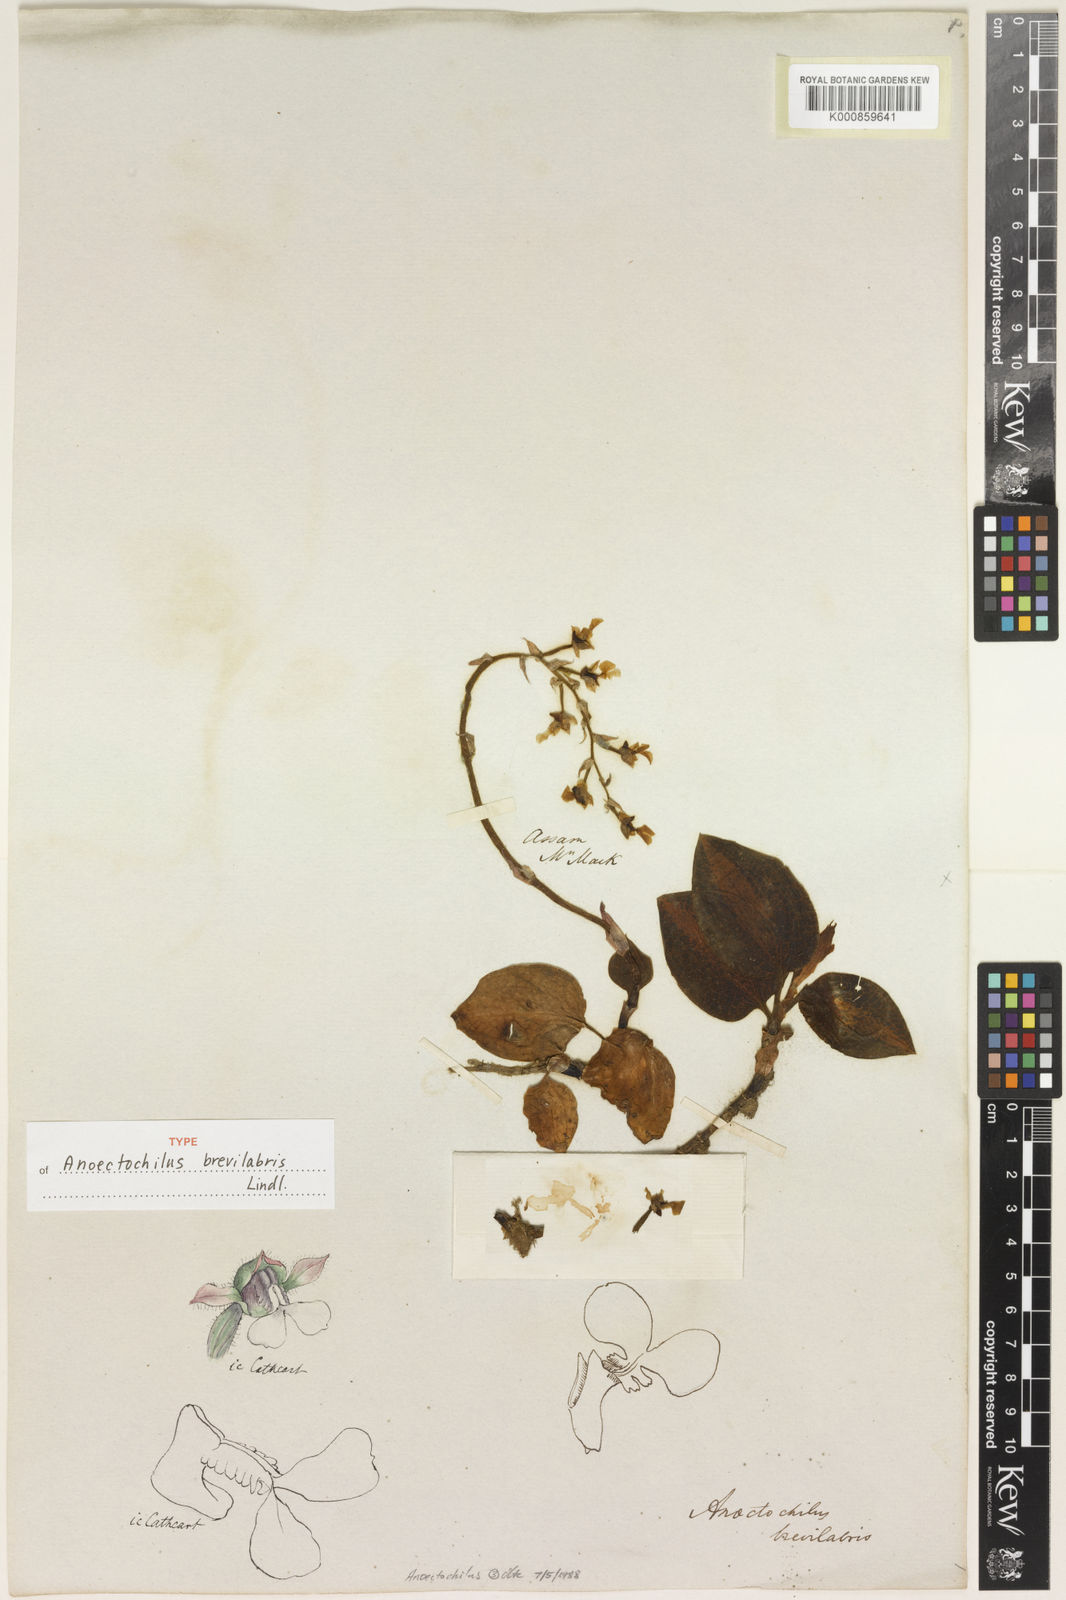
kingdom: Plantae
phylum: Tracheophyta
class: Liliopsida
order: Asparagales
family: Orchidaceae
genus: Anoectochilus
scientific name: Anoectochilus brevilabris
